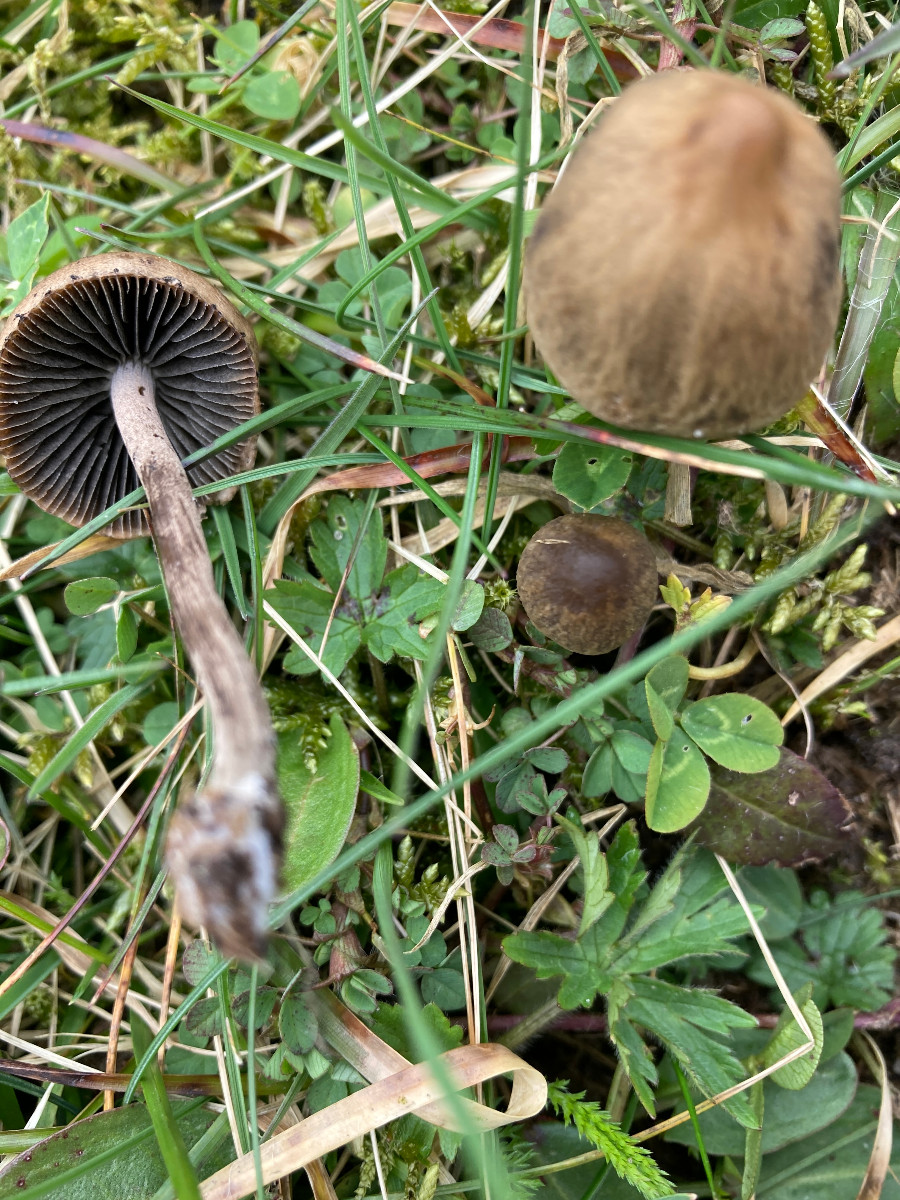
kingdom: Fungi
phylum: Basidiomycota
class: Agaricomycetes
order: Agaricales
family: Bolbitiaceae
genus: Panaeolus
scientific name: Panaeolus
